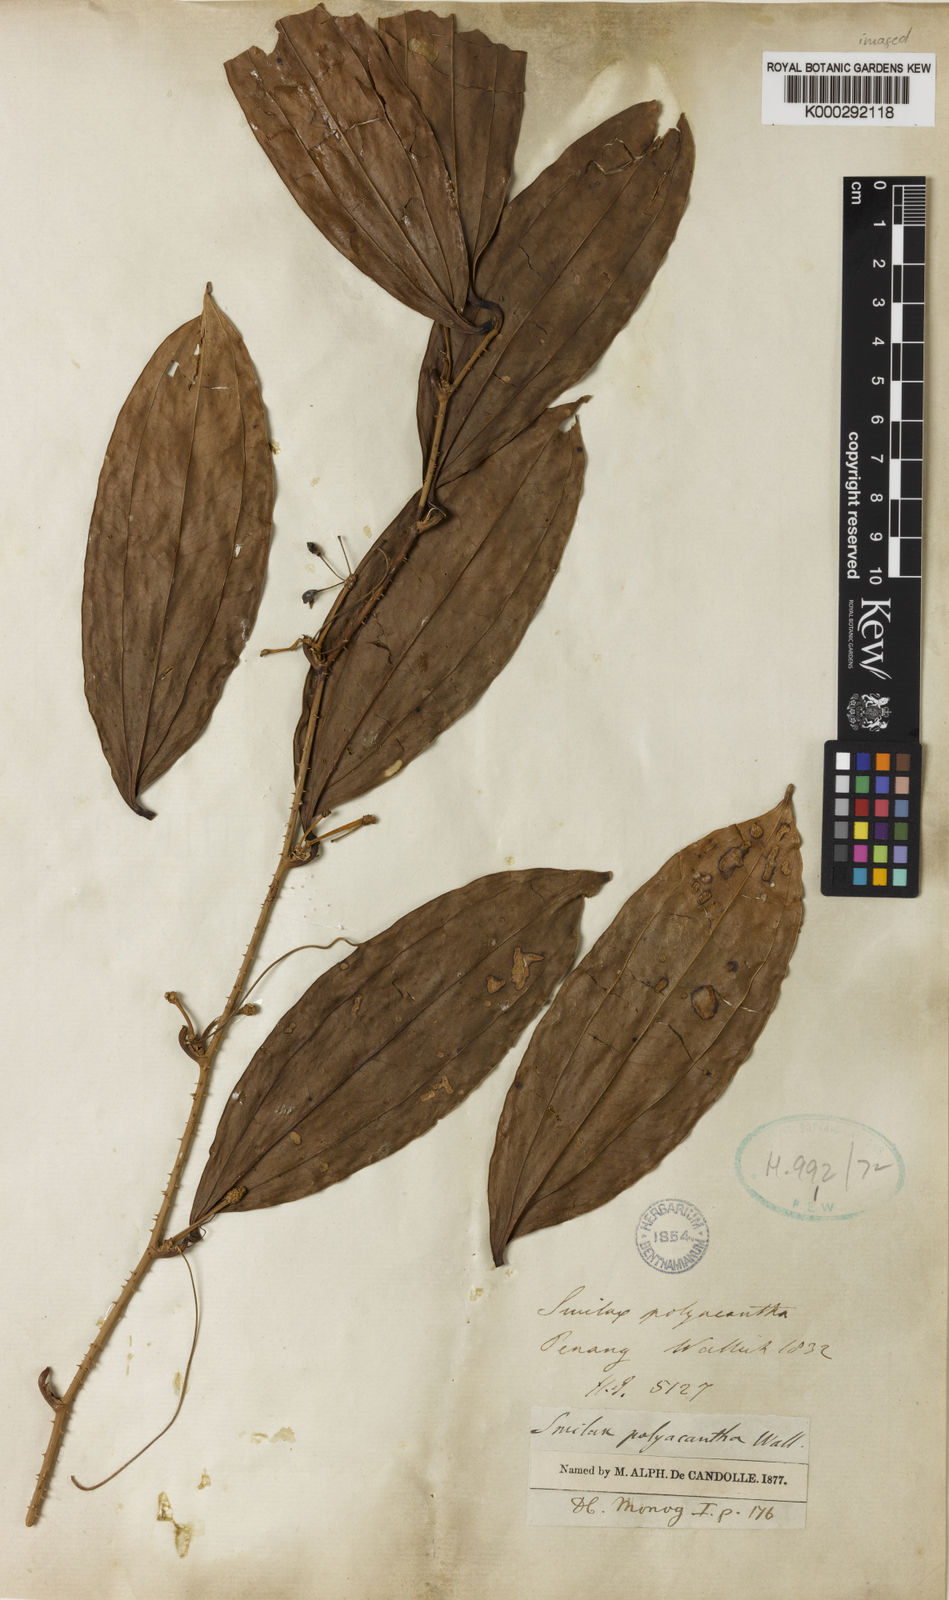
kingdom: Plantae
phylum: Tracheophyta
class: Liliopsida
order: Liliales
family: Smilacaceae
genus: Smilax
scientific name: Smilax polyacantha
